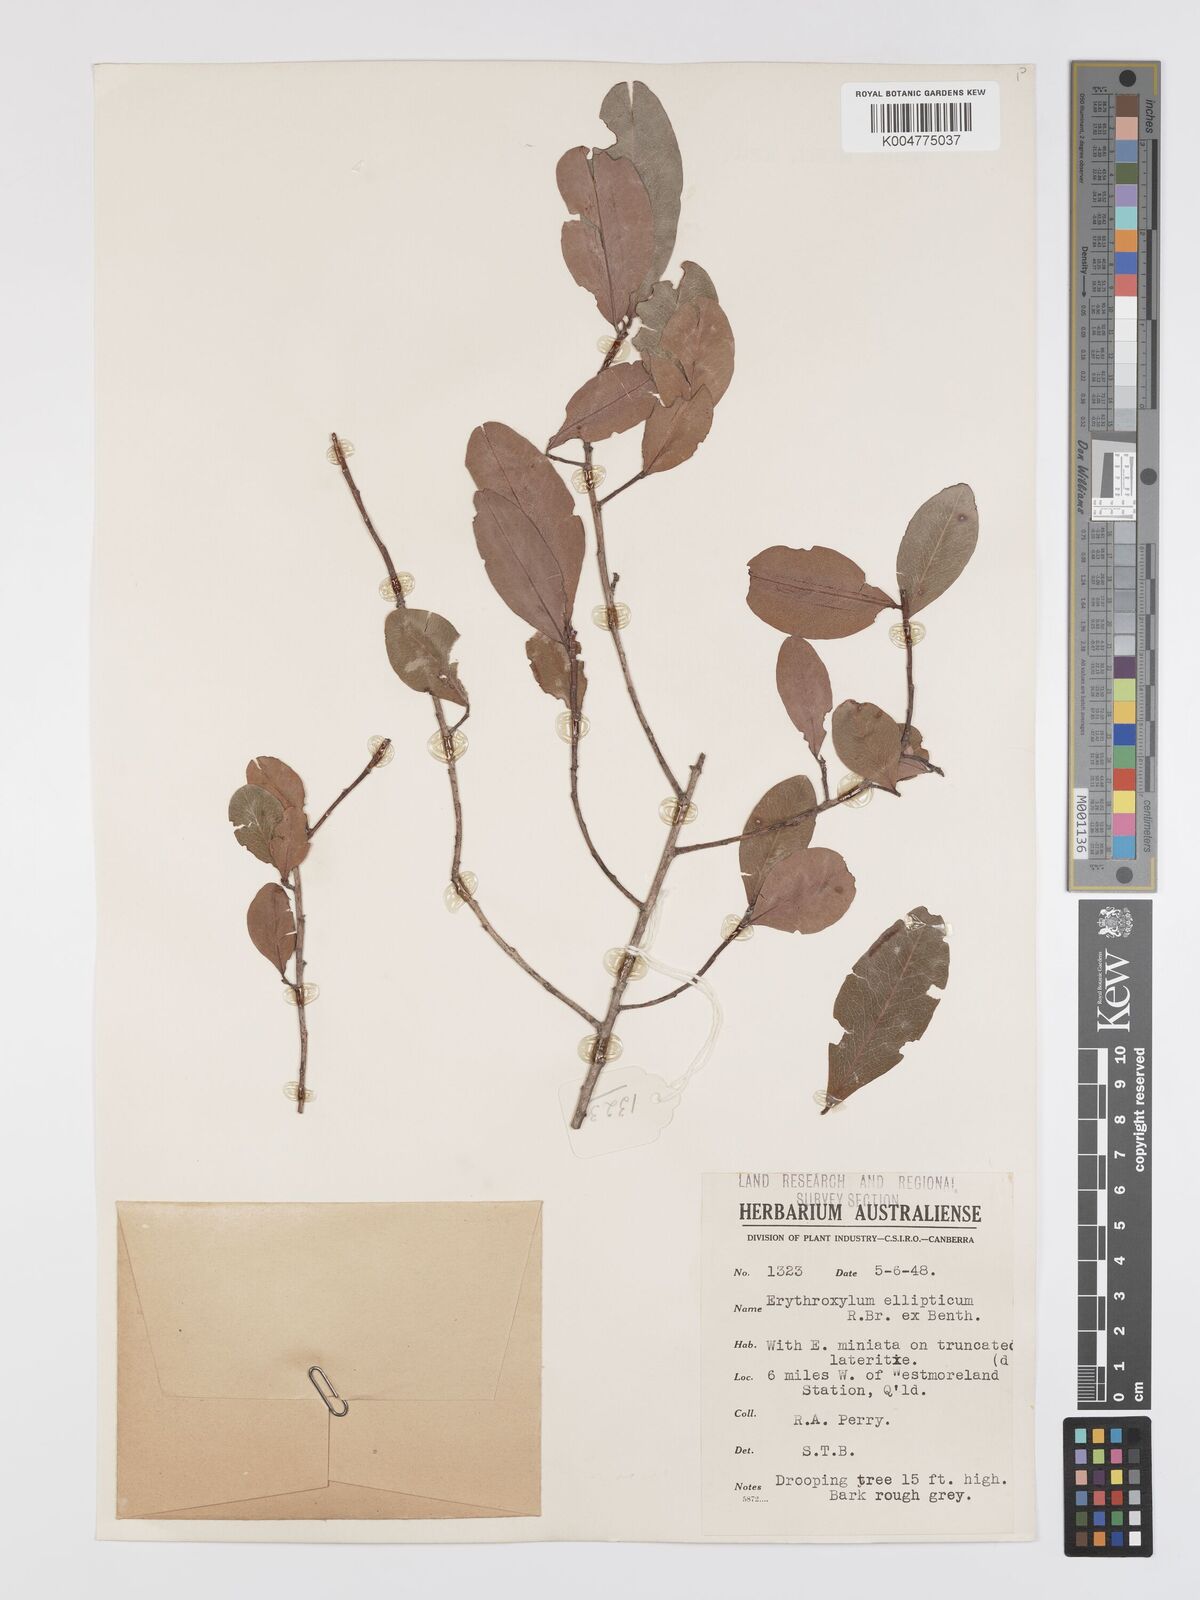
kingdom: Plantae
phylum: Tracheophyta
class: Magnoliopsida
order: Malpighiales
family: Erythroxylaceae
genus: Erythroxylum
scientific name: Erythroxylum
